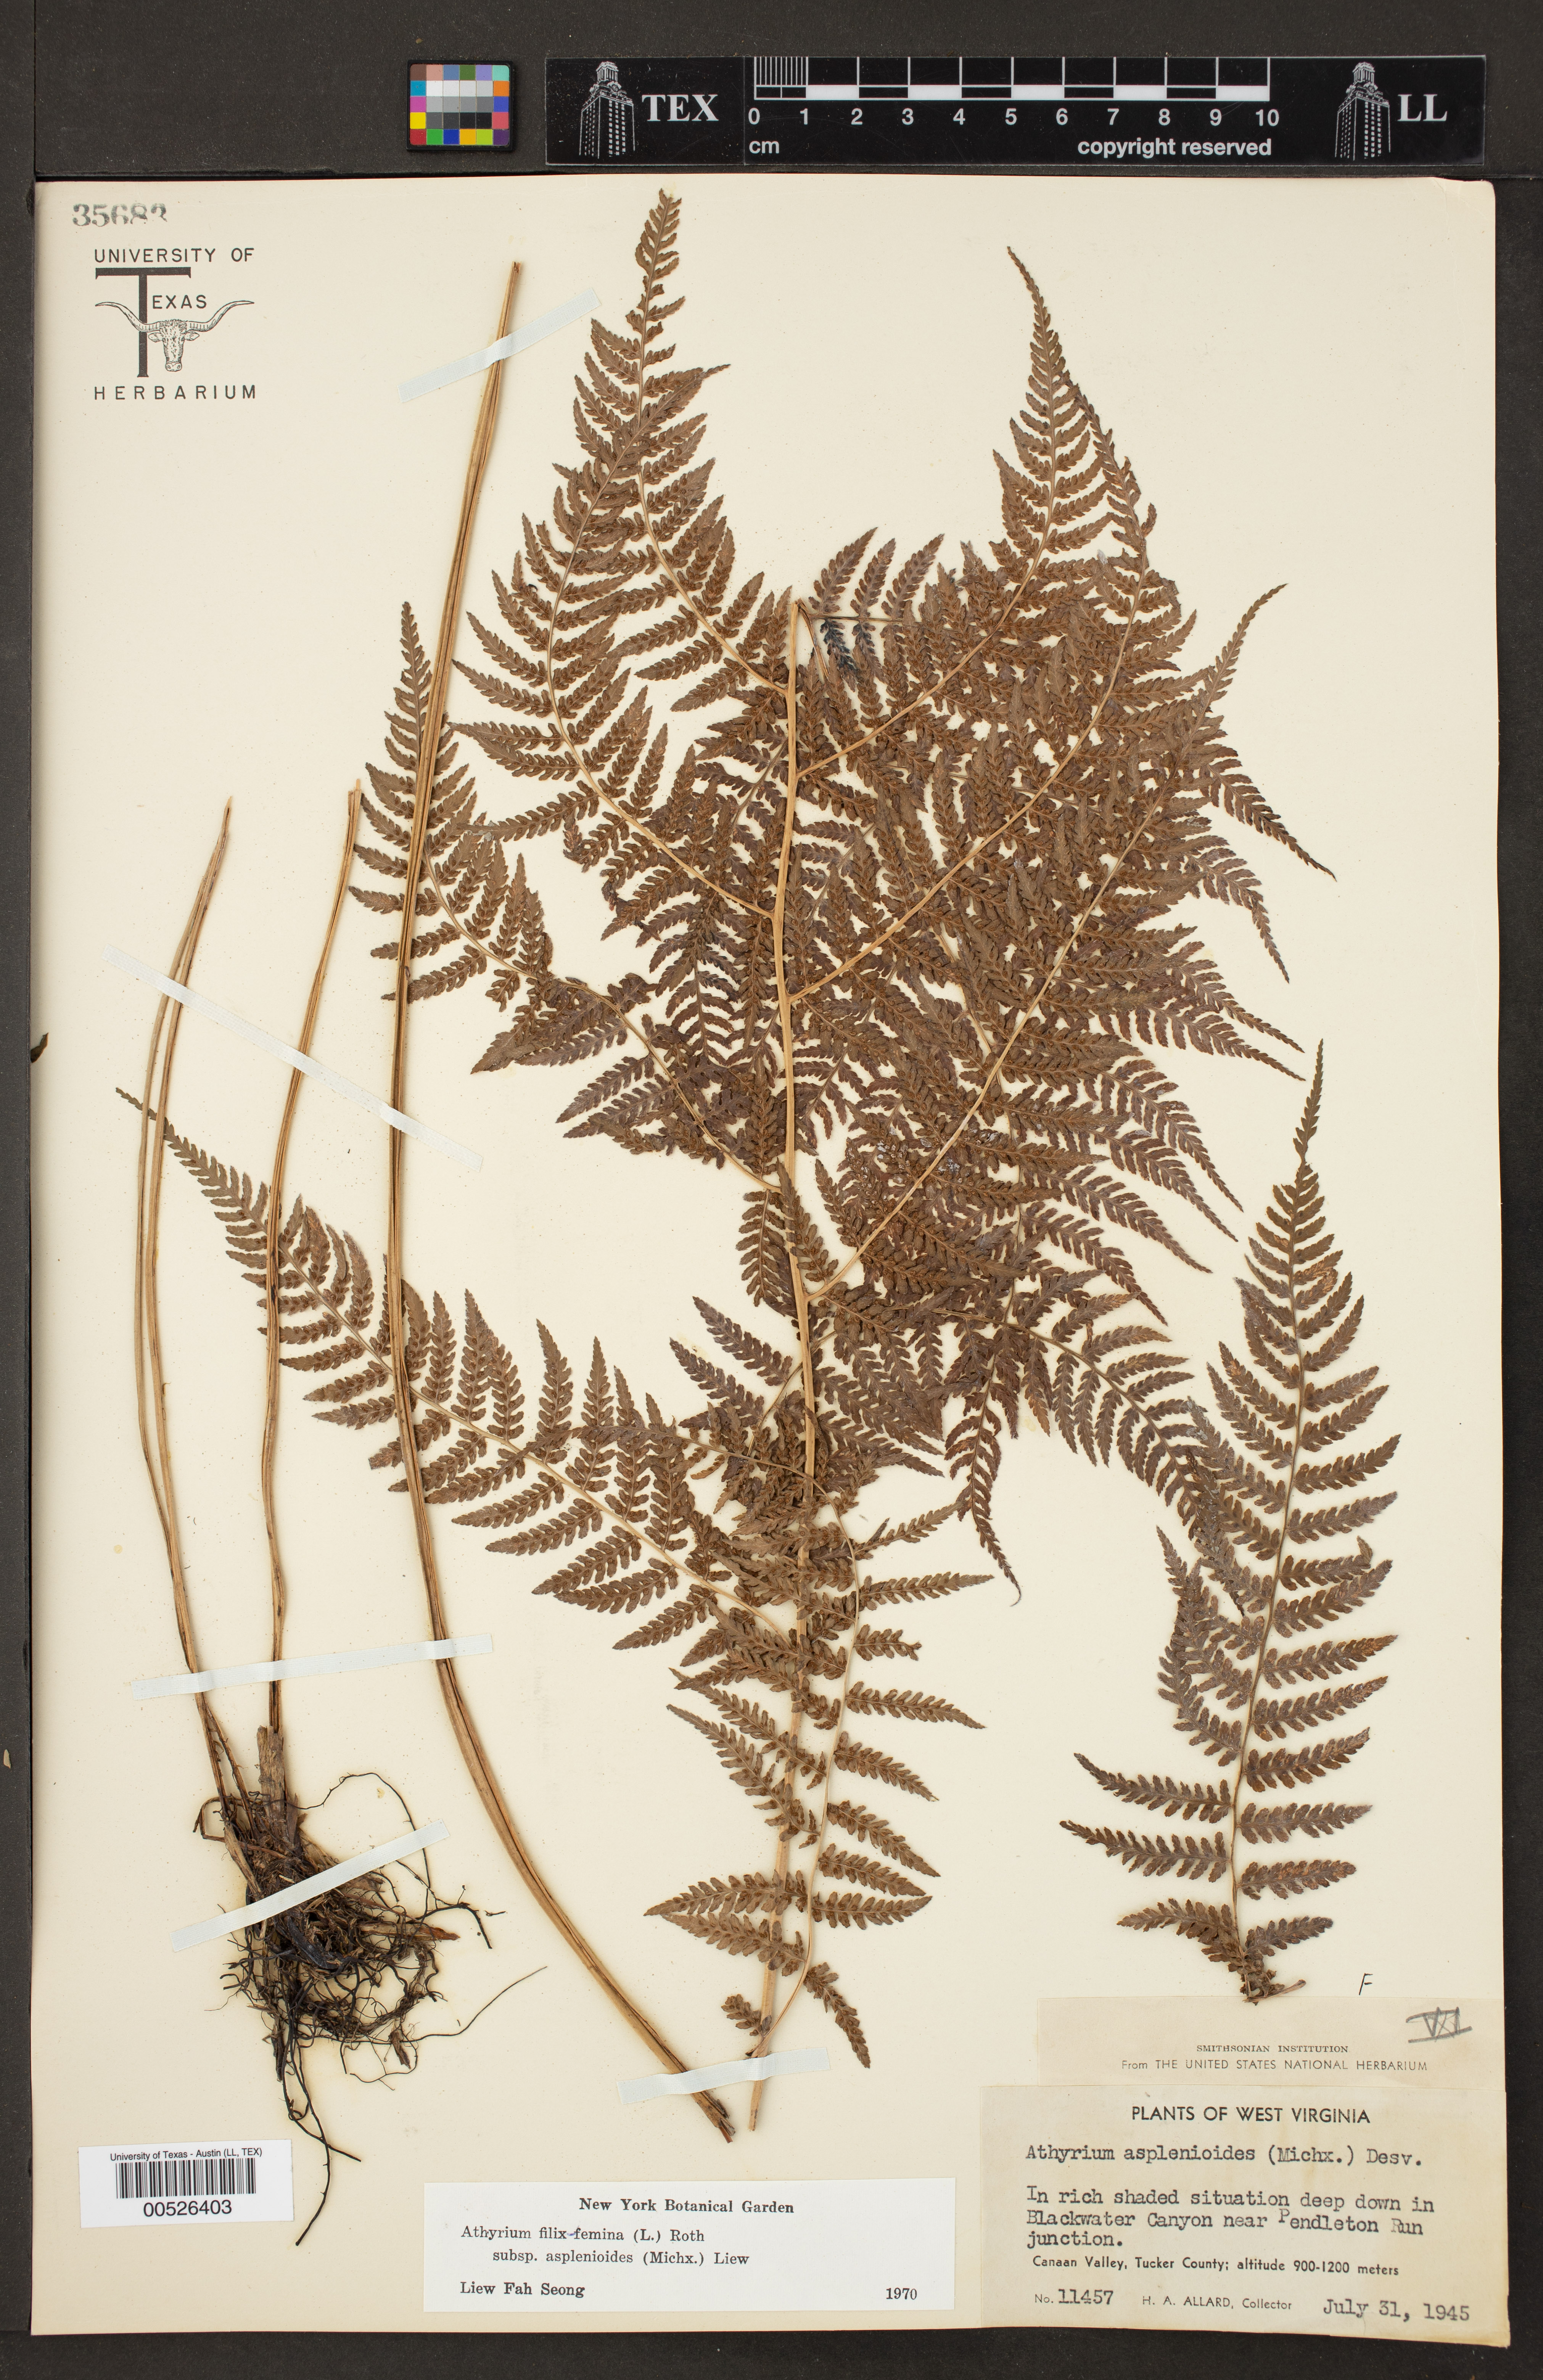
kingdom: Plantae
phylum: Tracheophyta
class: Polypodiopsida
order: Polypodiales
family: Athyriaceae
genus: Athyrium
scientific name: Athyrium asplenioides
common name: Southern lady fern
